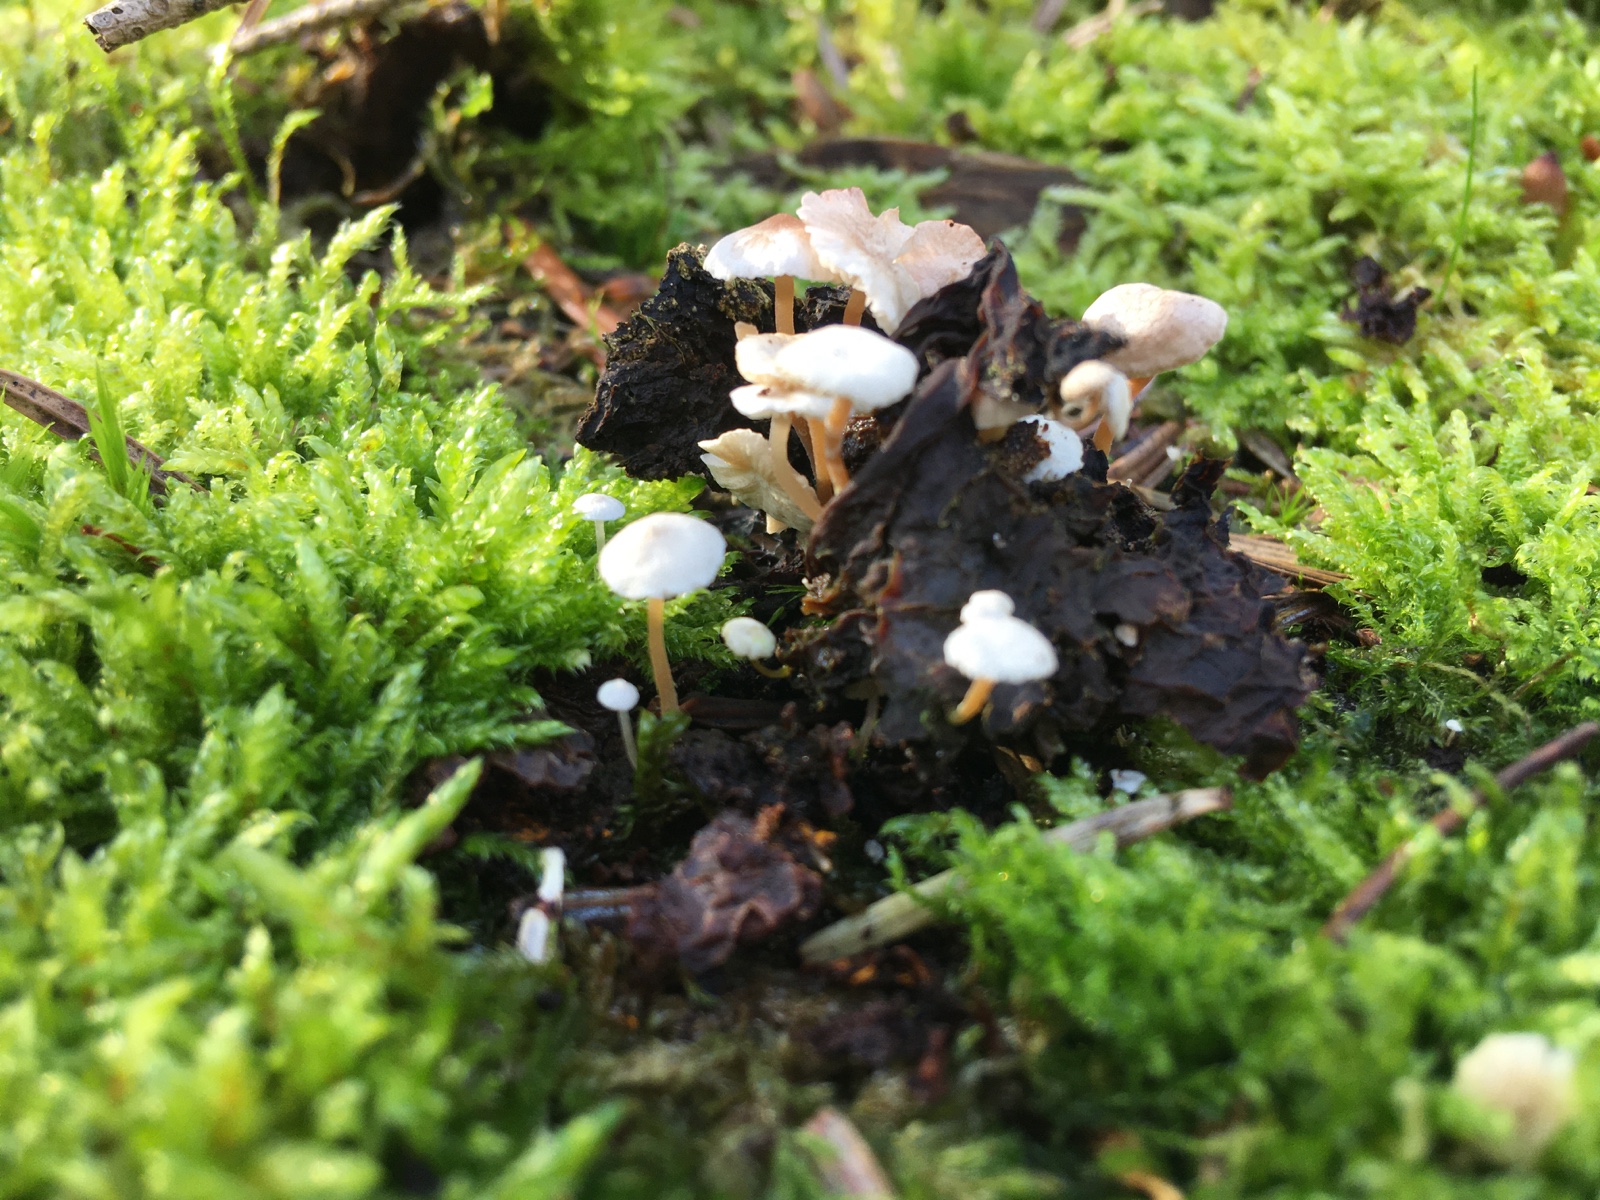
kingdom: Fungi
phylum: Basidiomycota
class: Agaricomycetes
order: Agaricales
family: Tricholomataceae
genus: Collybia
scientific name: Collybia cirrhata
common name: silke-lighat
